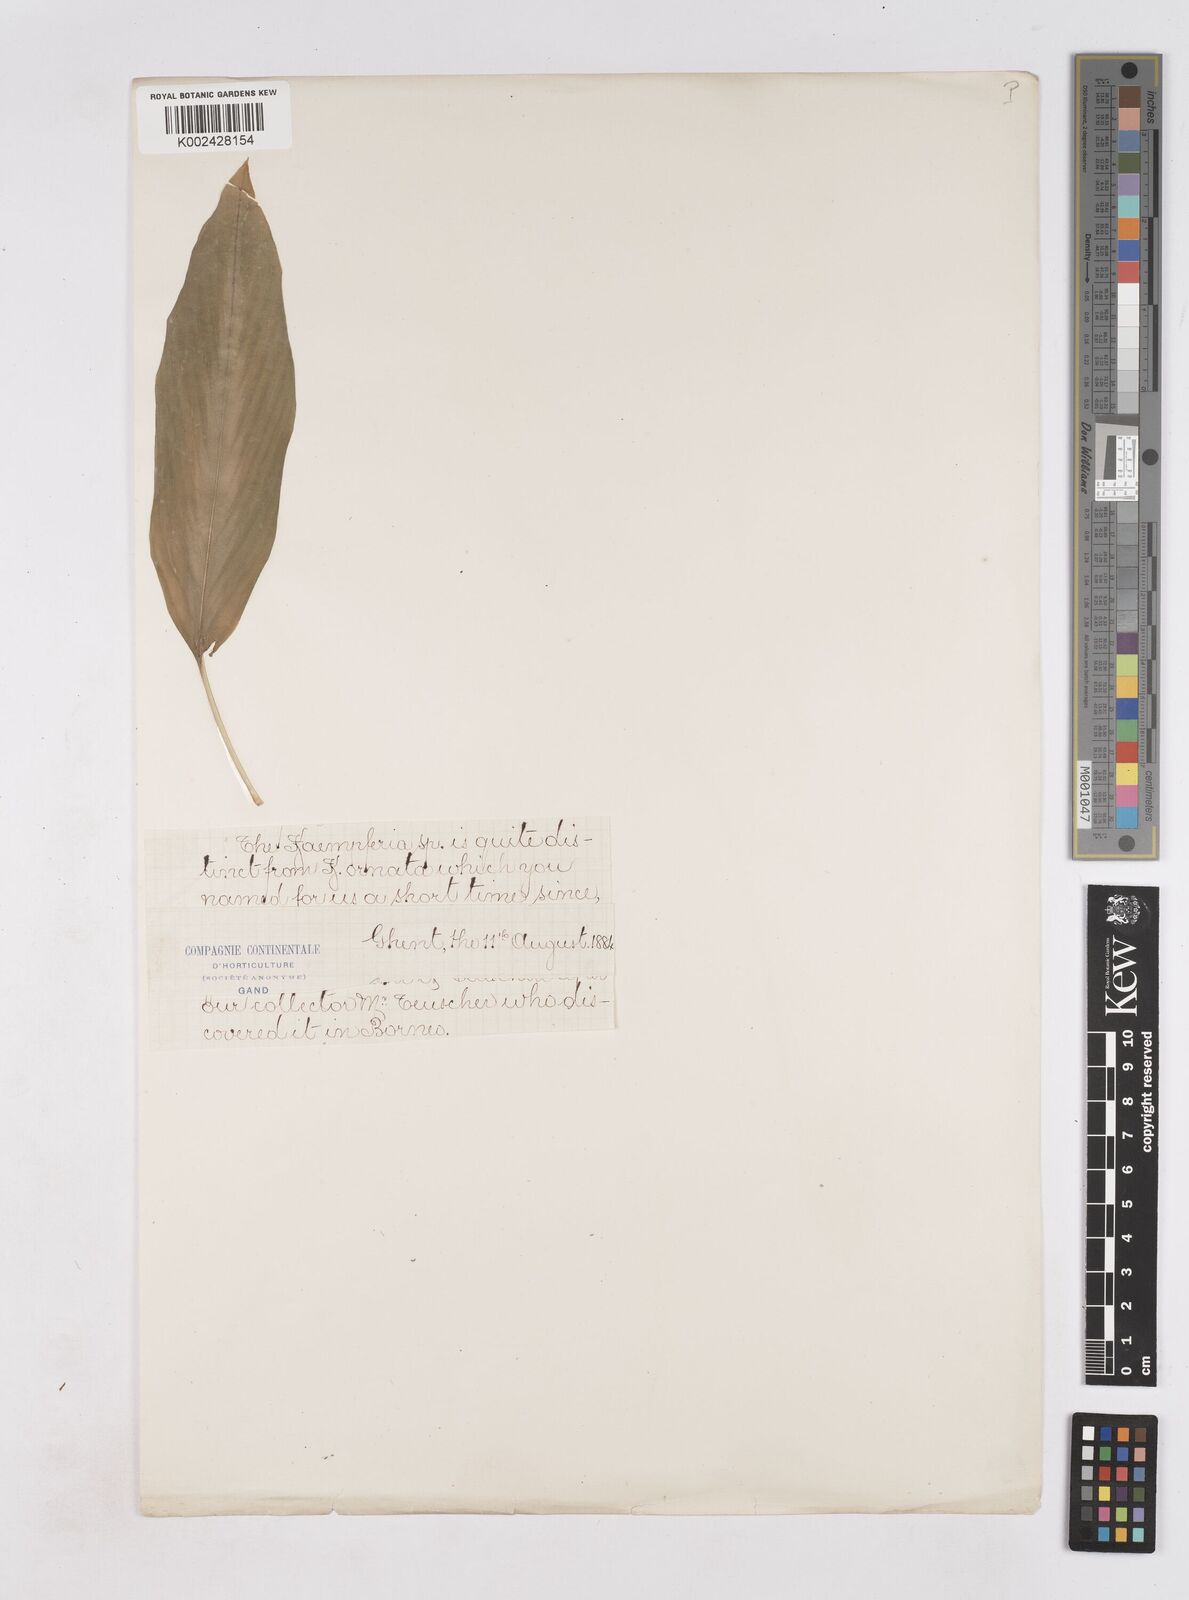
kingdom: Plantae
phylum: Tracheophyta
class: Liliopsida
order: Zingiberales
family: Zingiberaceae
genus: Kaempferia
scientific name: Kaempferia
